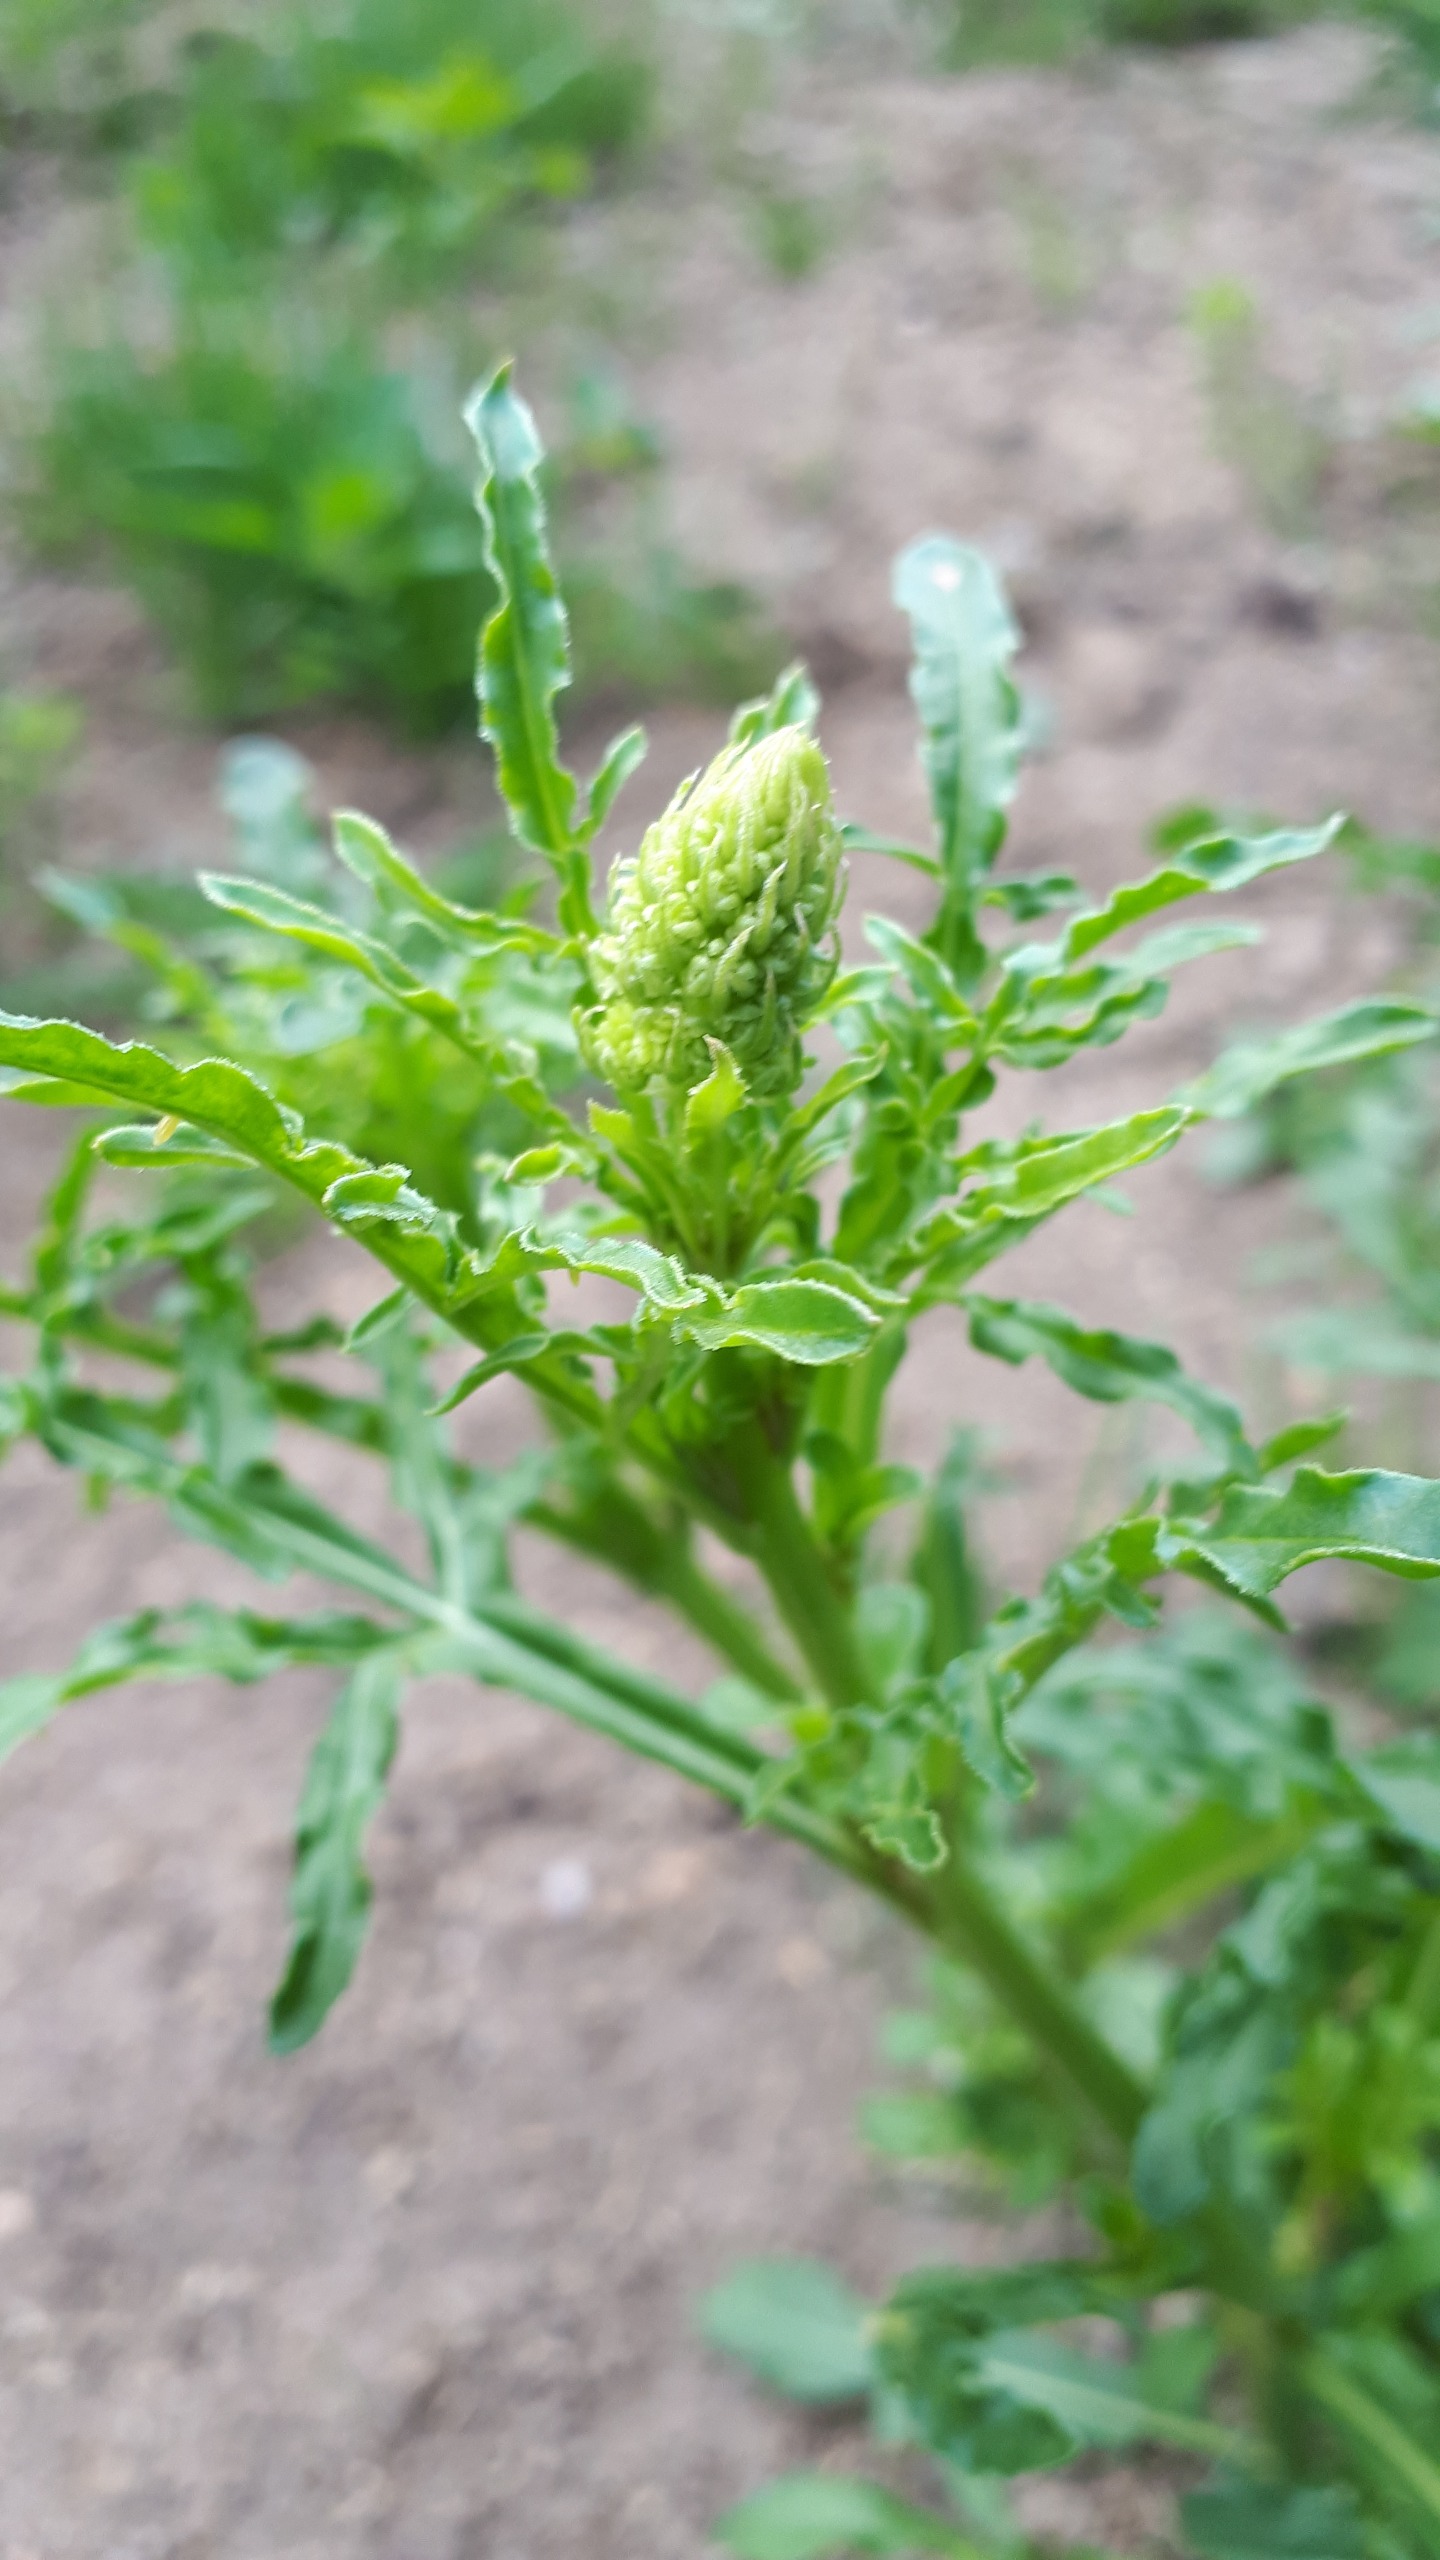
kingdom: Plantae
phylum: Tracheophyta
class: Magnoliopsida
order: Brassicales
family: Resedaceae
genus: Reseda
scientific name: Reseda lutea
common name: Gul reseda
